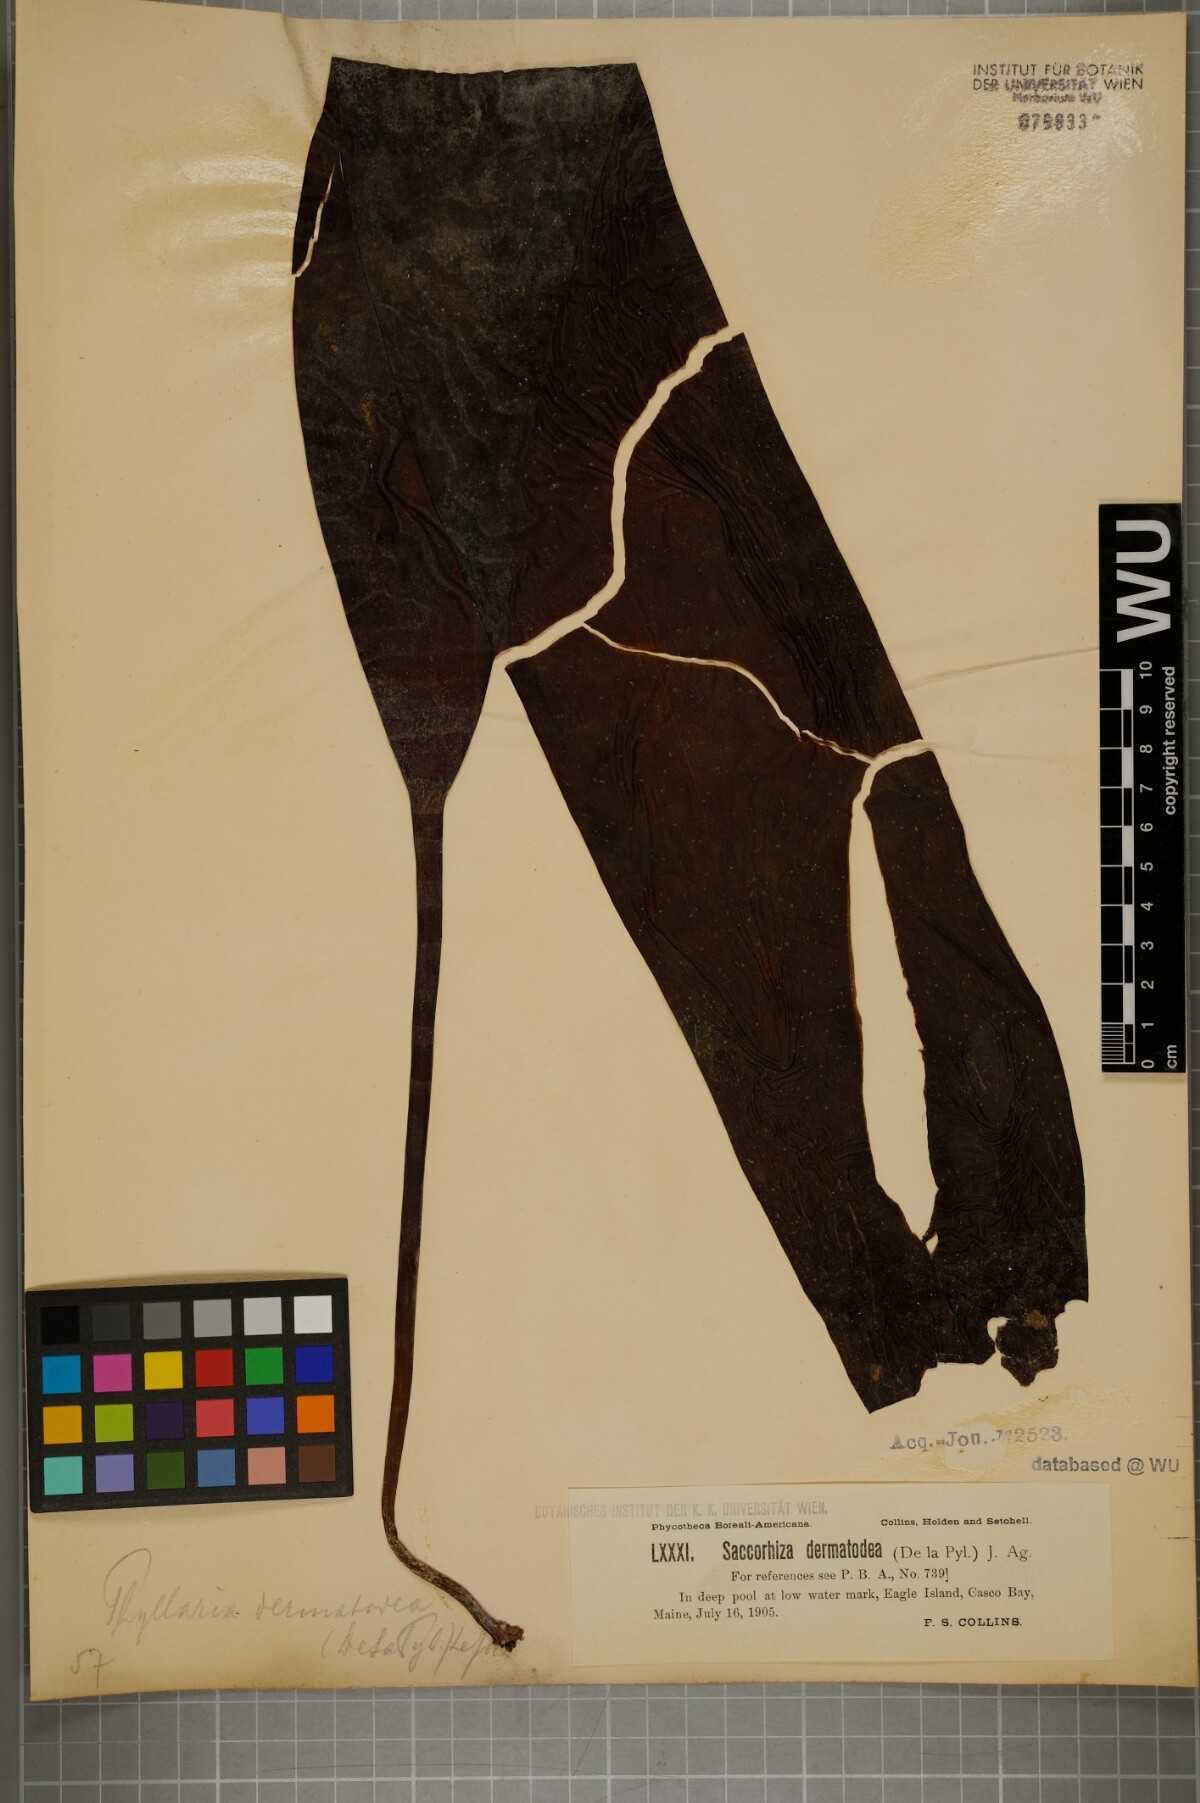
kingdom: Chromista
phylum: Ochrophyta
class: Phaeophyceae
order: Tilopteridales
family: Phyllariaceae
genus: Saccorhiza
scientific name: Saccorhiza dermatodea
